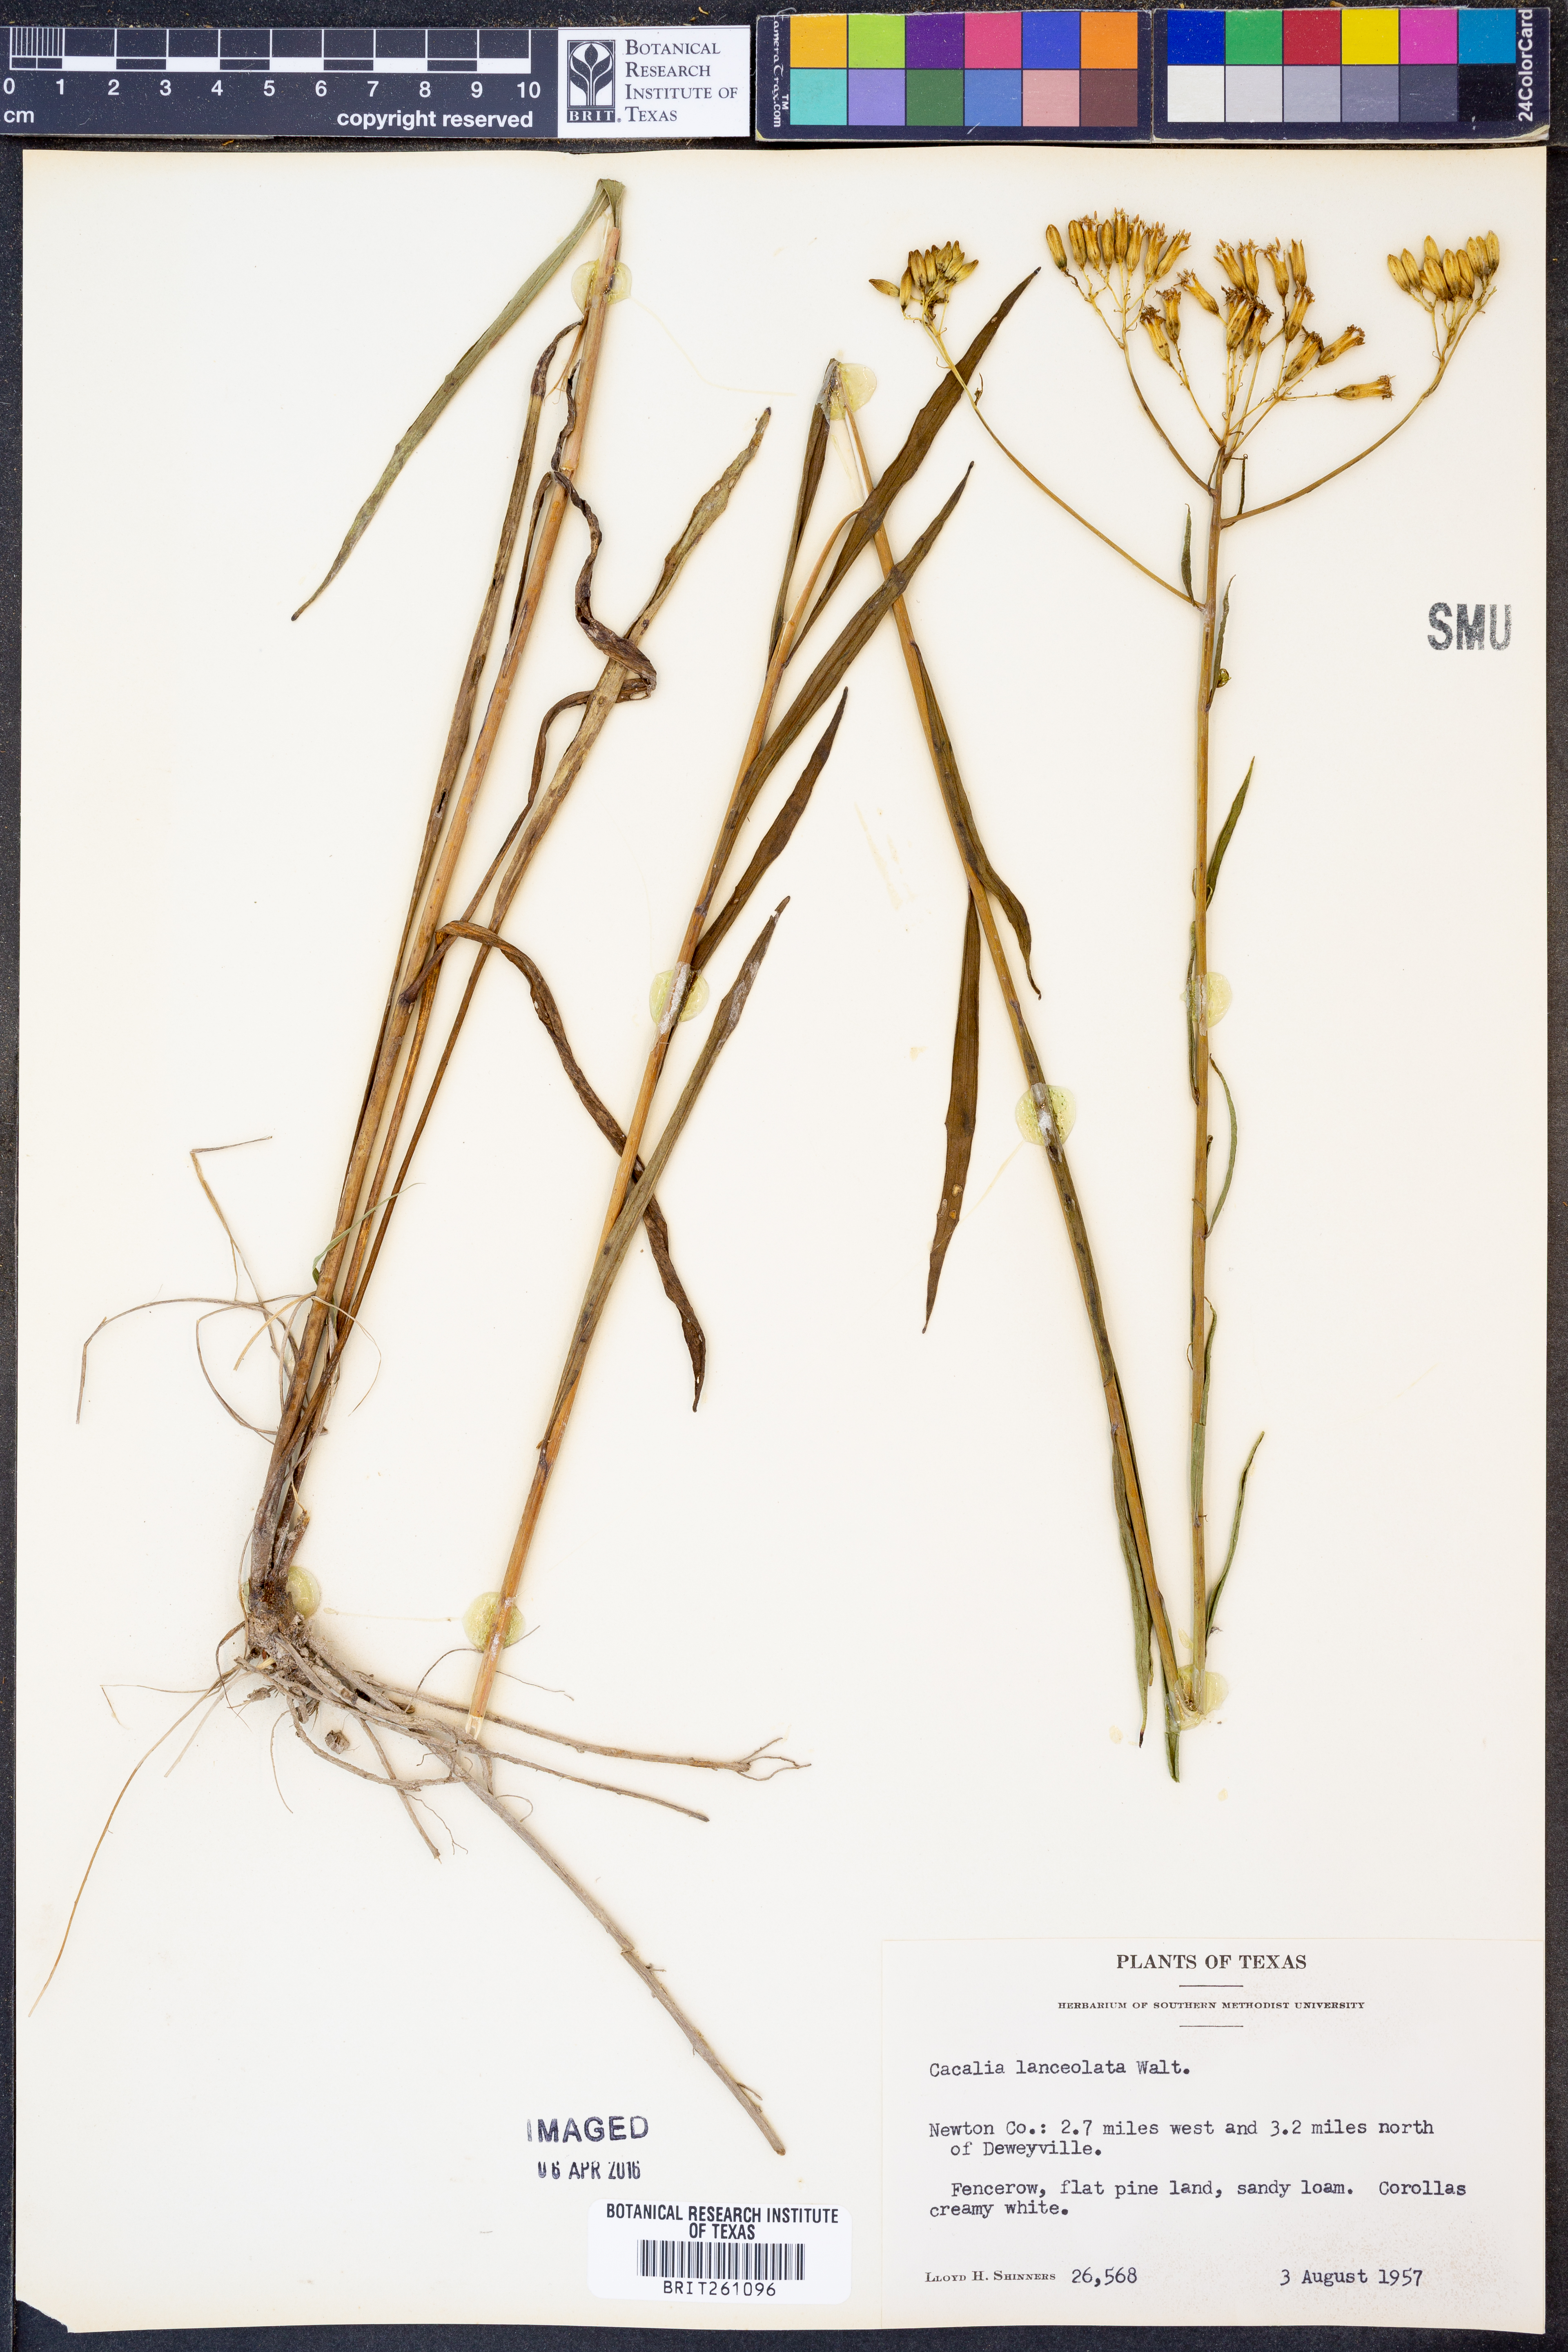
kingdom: Plantae
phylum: Tracheophyta
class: Magnoliopsida
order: Asterales
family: Asteraceae
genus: Arnoglossum
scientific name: Arnoglossum ovatum
